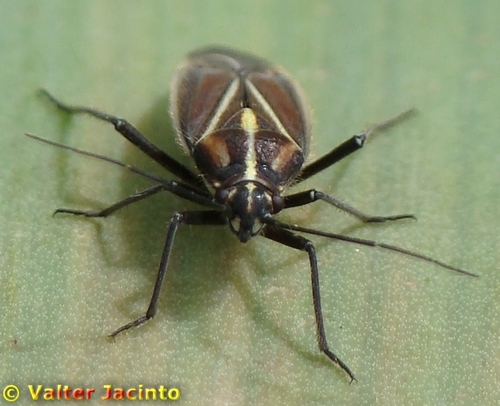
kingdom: Animalia
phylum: Arthropoda
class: Insecta
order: Hemiptera
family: Miridae
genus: Horistus
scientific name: Horistus orientalis
